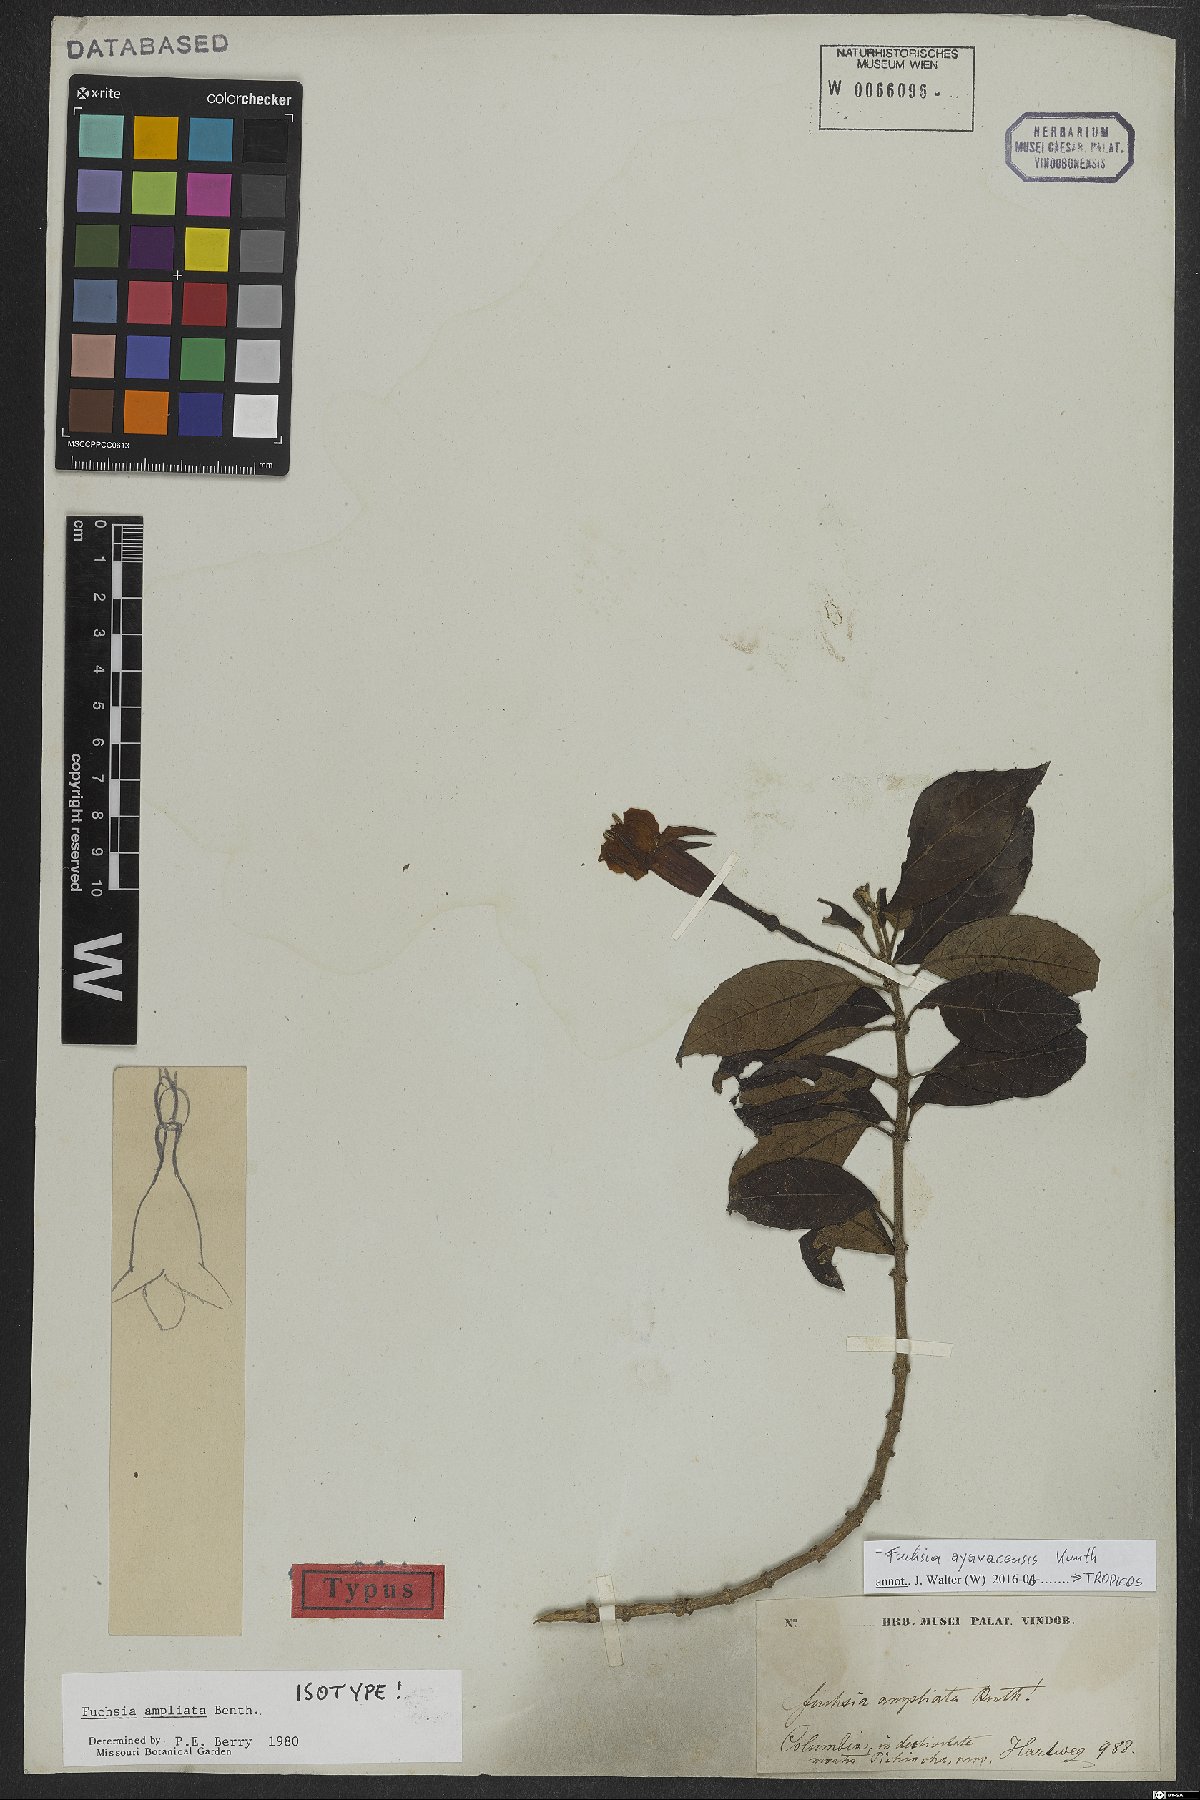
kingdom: Plantae
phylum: Tracheophyta
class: Magnoliopsida
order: Myrtales
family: Onagraceae
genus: Fuchsia
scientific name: Fuchsia ayavacensis
